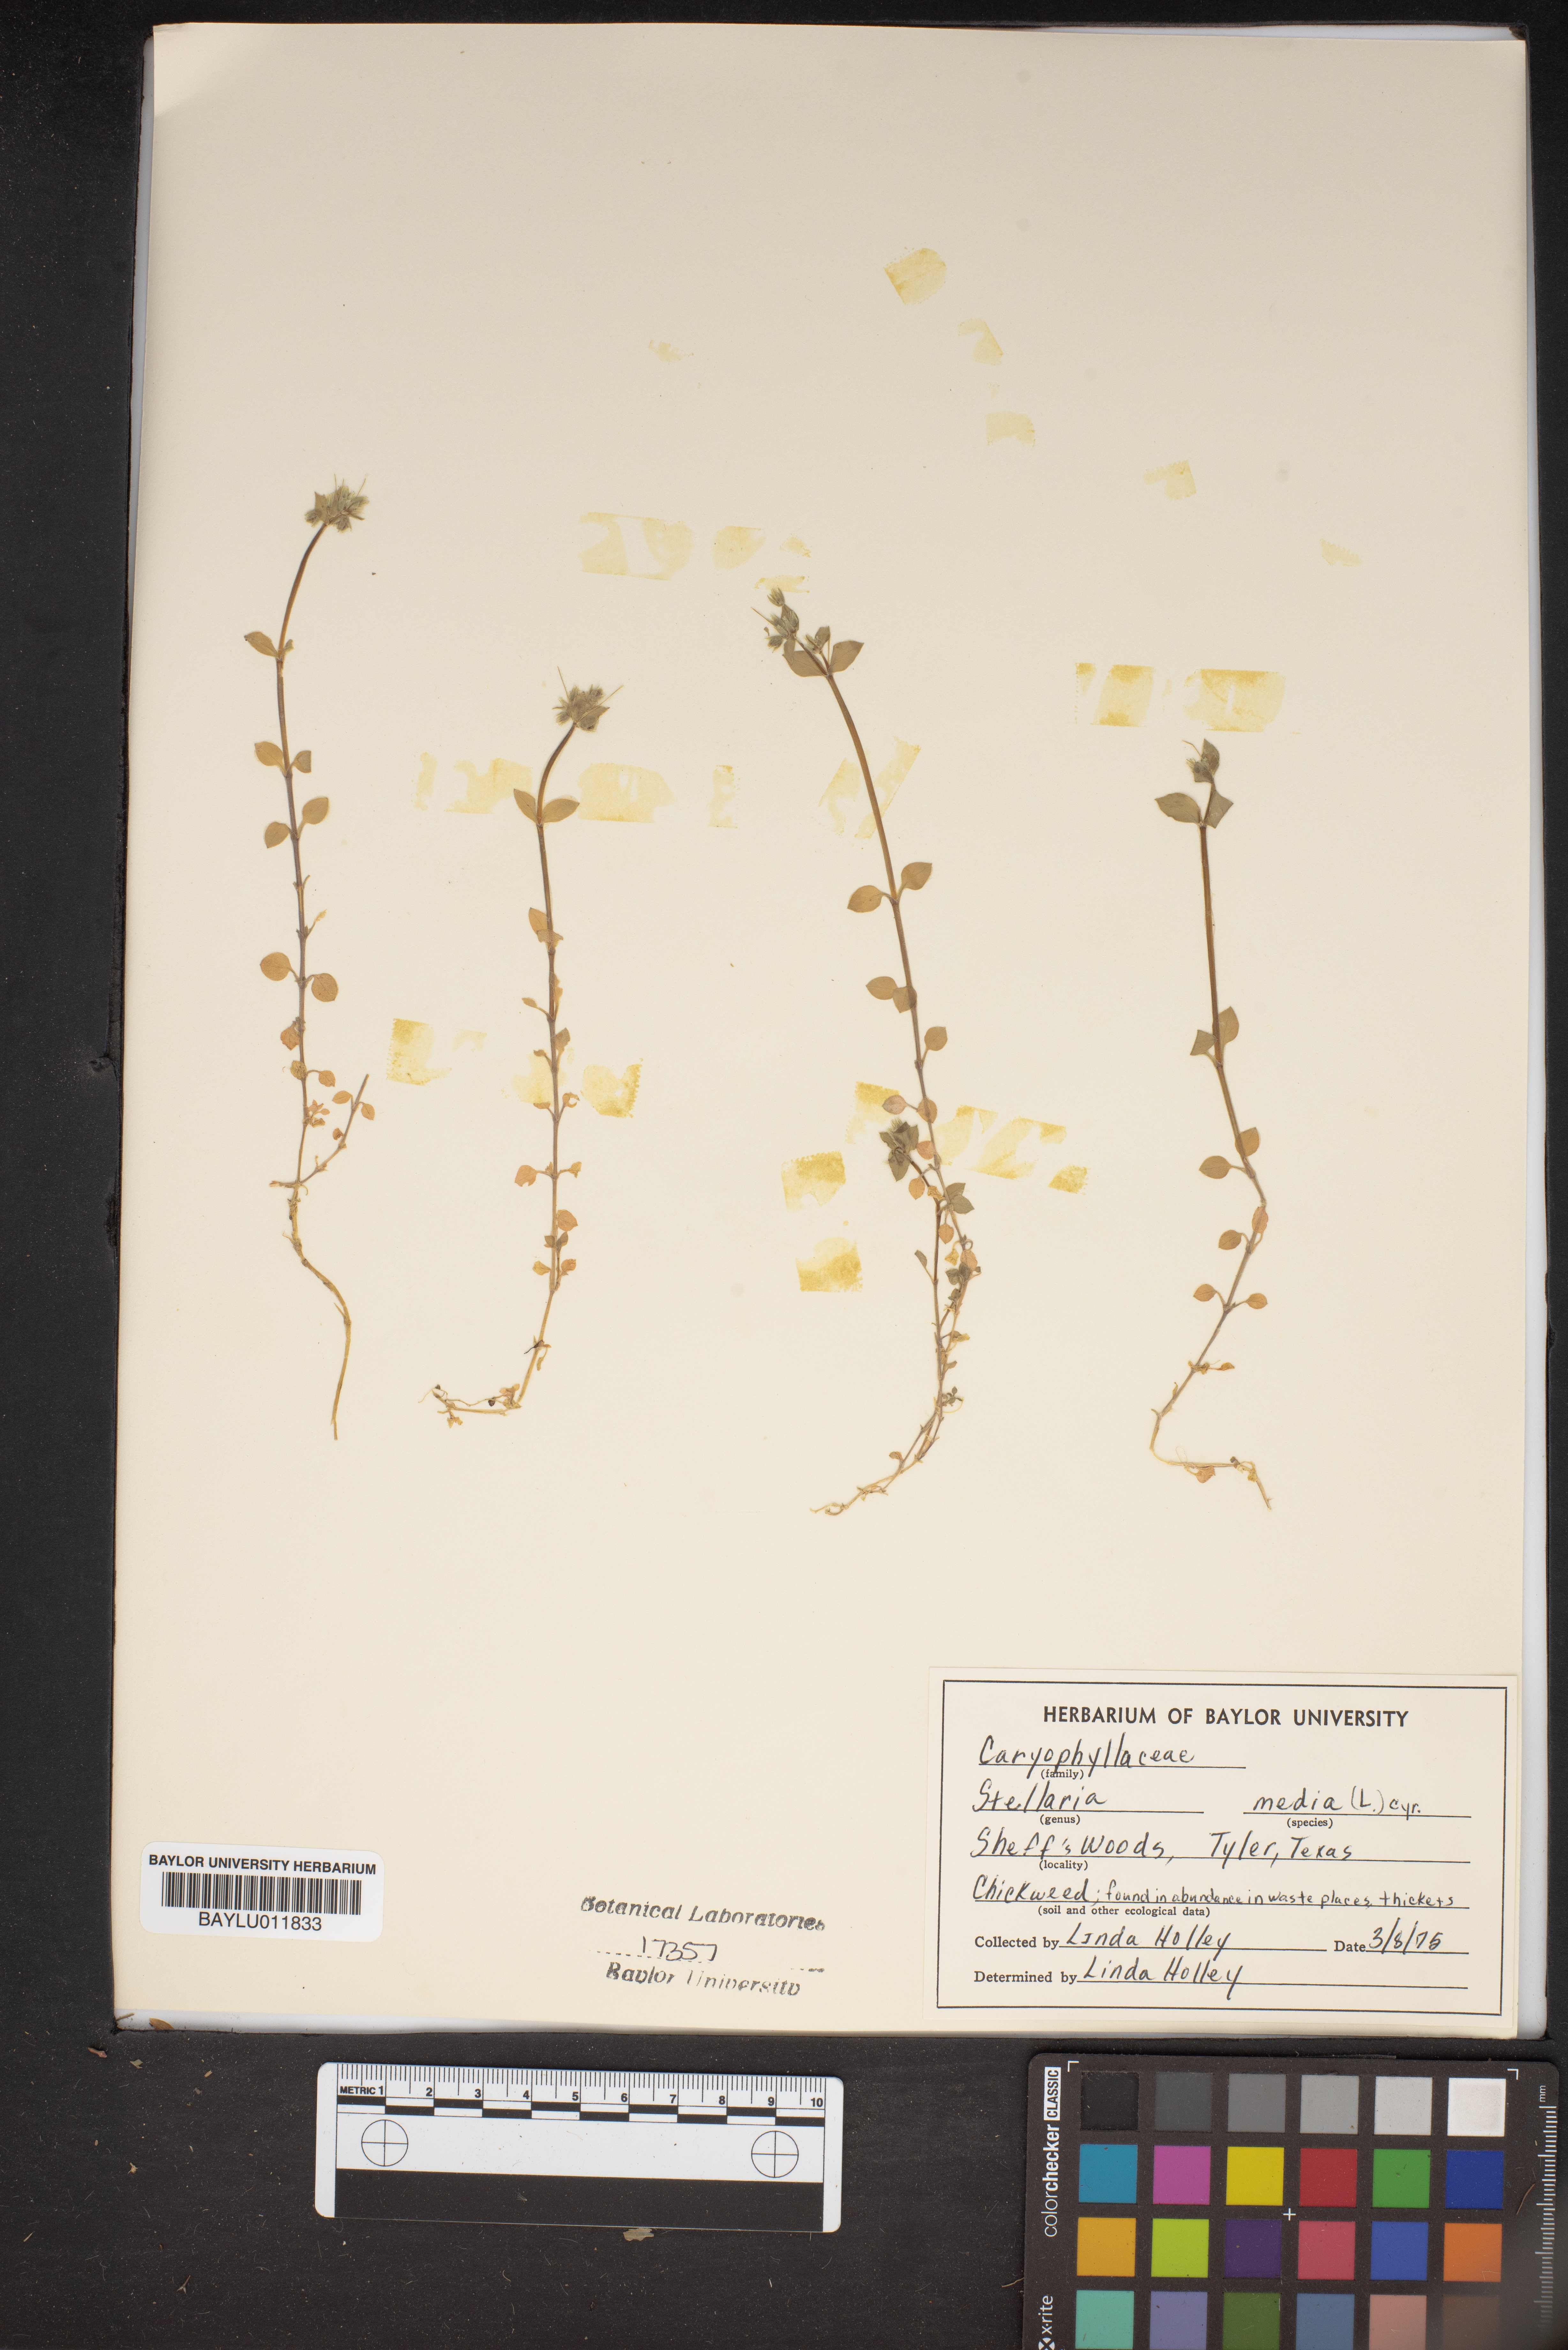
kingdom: Plantae
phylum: Tracheophyta
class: Magnoliopsida
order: Caryophyllales
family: Caryophyllaceae
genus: Stellaria
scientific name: Stellaria media
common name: Common chickweed
